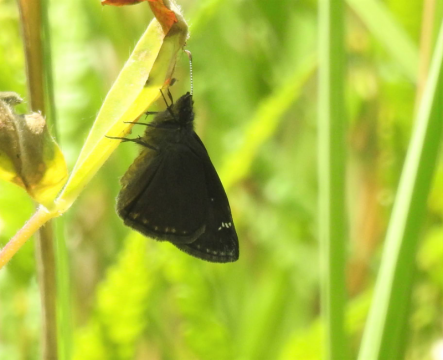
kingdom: Animalia
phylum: Arthropoda
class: Insecta
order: Lepidoptera
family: Hesperiidae
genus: Gesta
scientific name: Gesta
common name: Wild Indigo Duskywing
